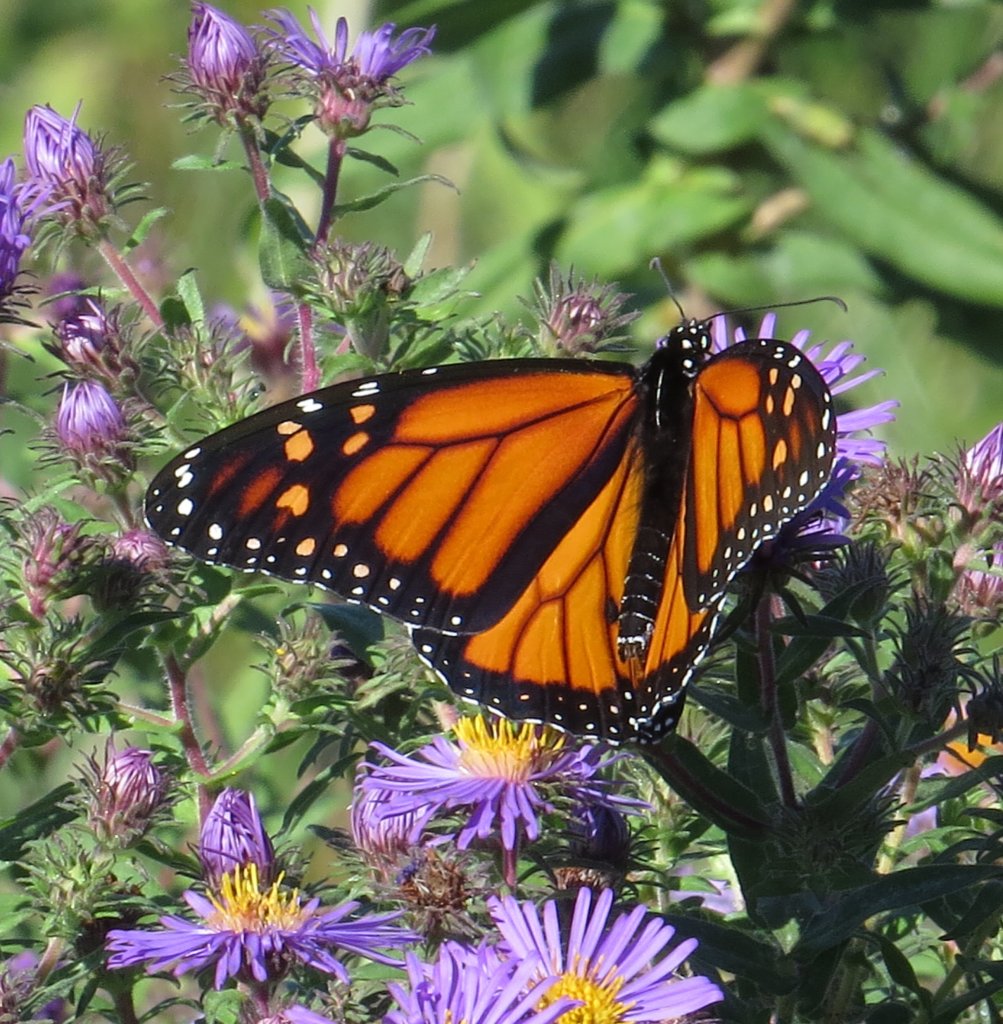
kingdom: Animalia
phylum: Arthropoda
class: Insecta
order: Lepidoptera
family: Nymphalidae
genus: Danaus
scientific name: Danaus plexippus
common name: Monarch
